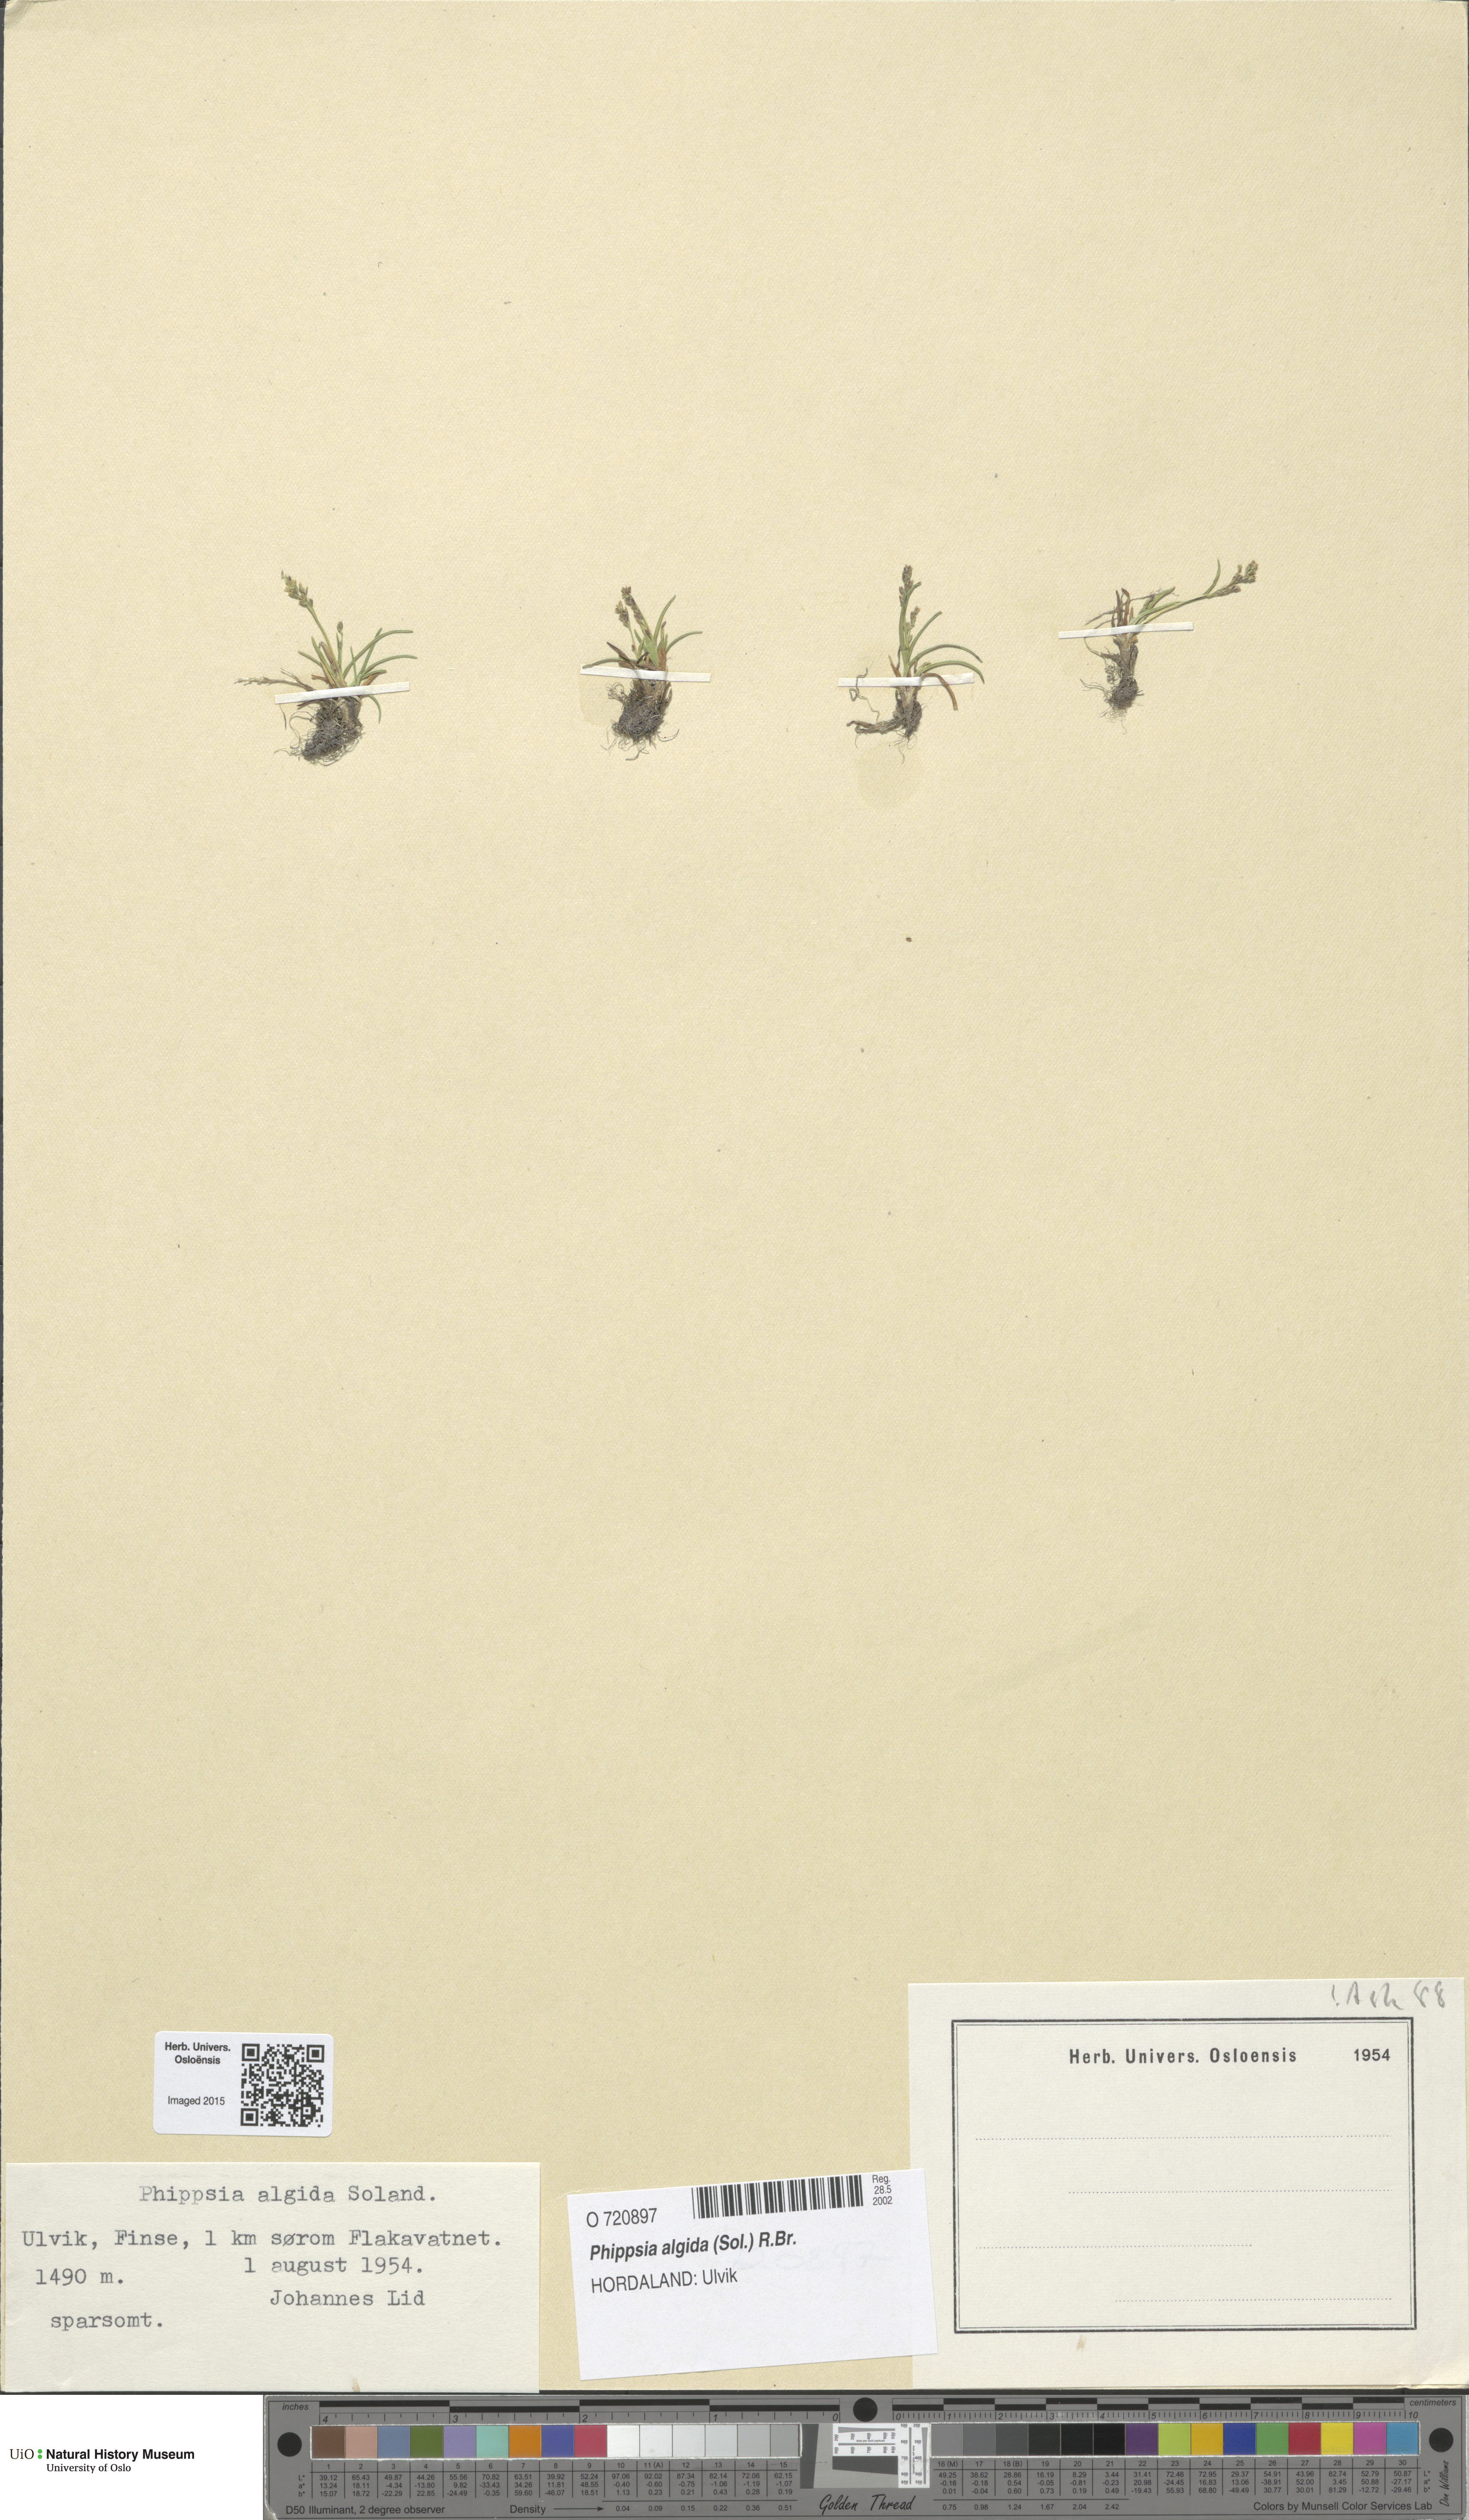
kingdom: Plantae
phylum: Tracheophyta
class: Liliopsida
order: Poales
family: Poaceae
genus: Phippsia
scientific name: Phippsia algida
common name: Ice grass
